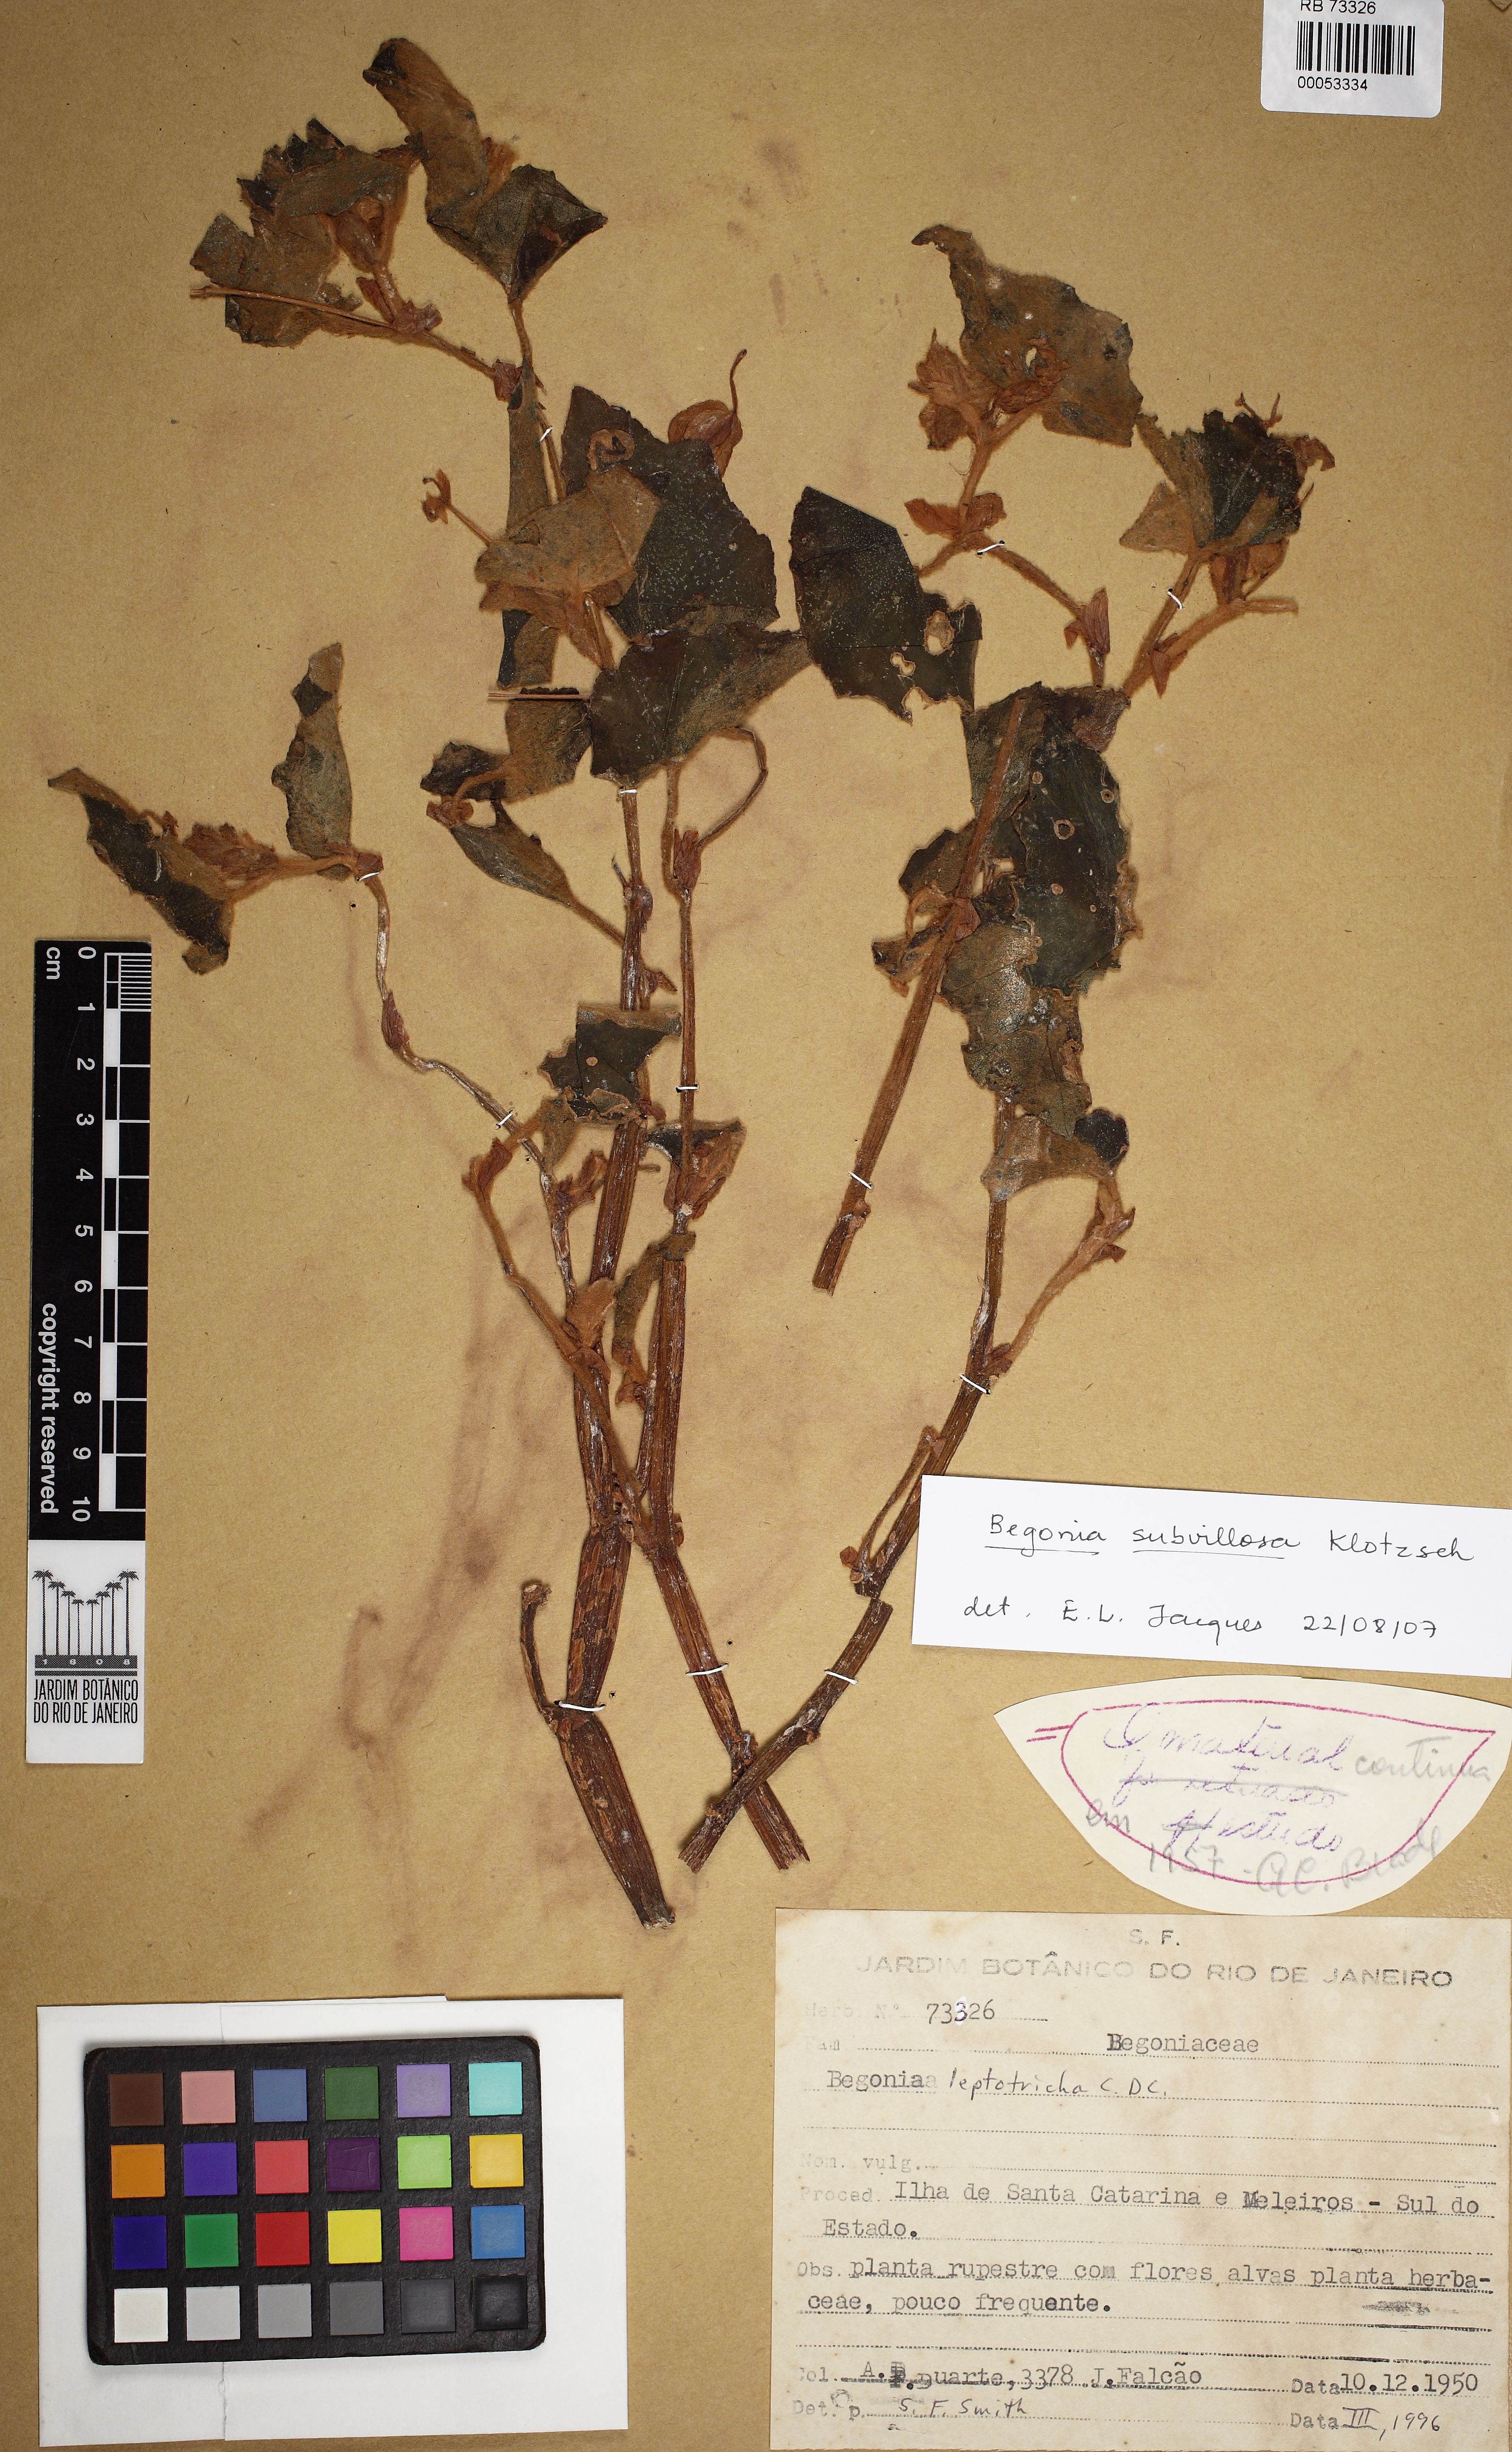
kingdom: Plantae
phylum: Tracheophyta
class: Magnoliopsida
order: Cucurbitales
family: Begoniaceae
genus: Begonia
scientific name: Begonia subvillosa
